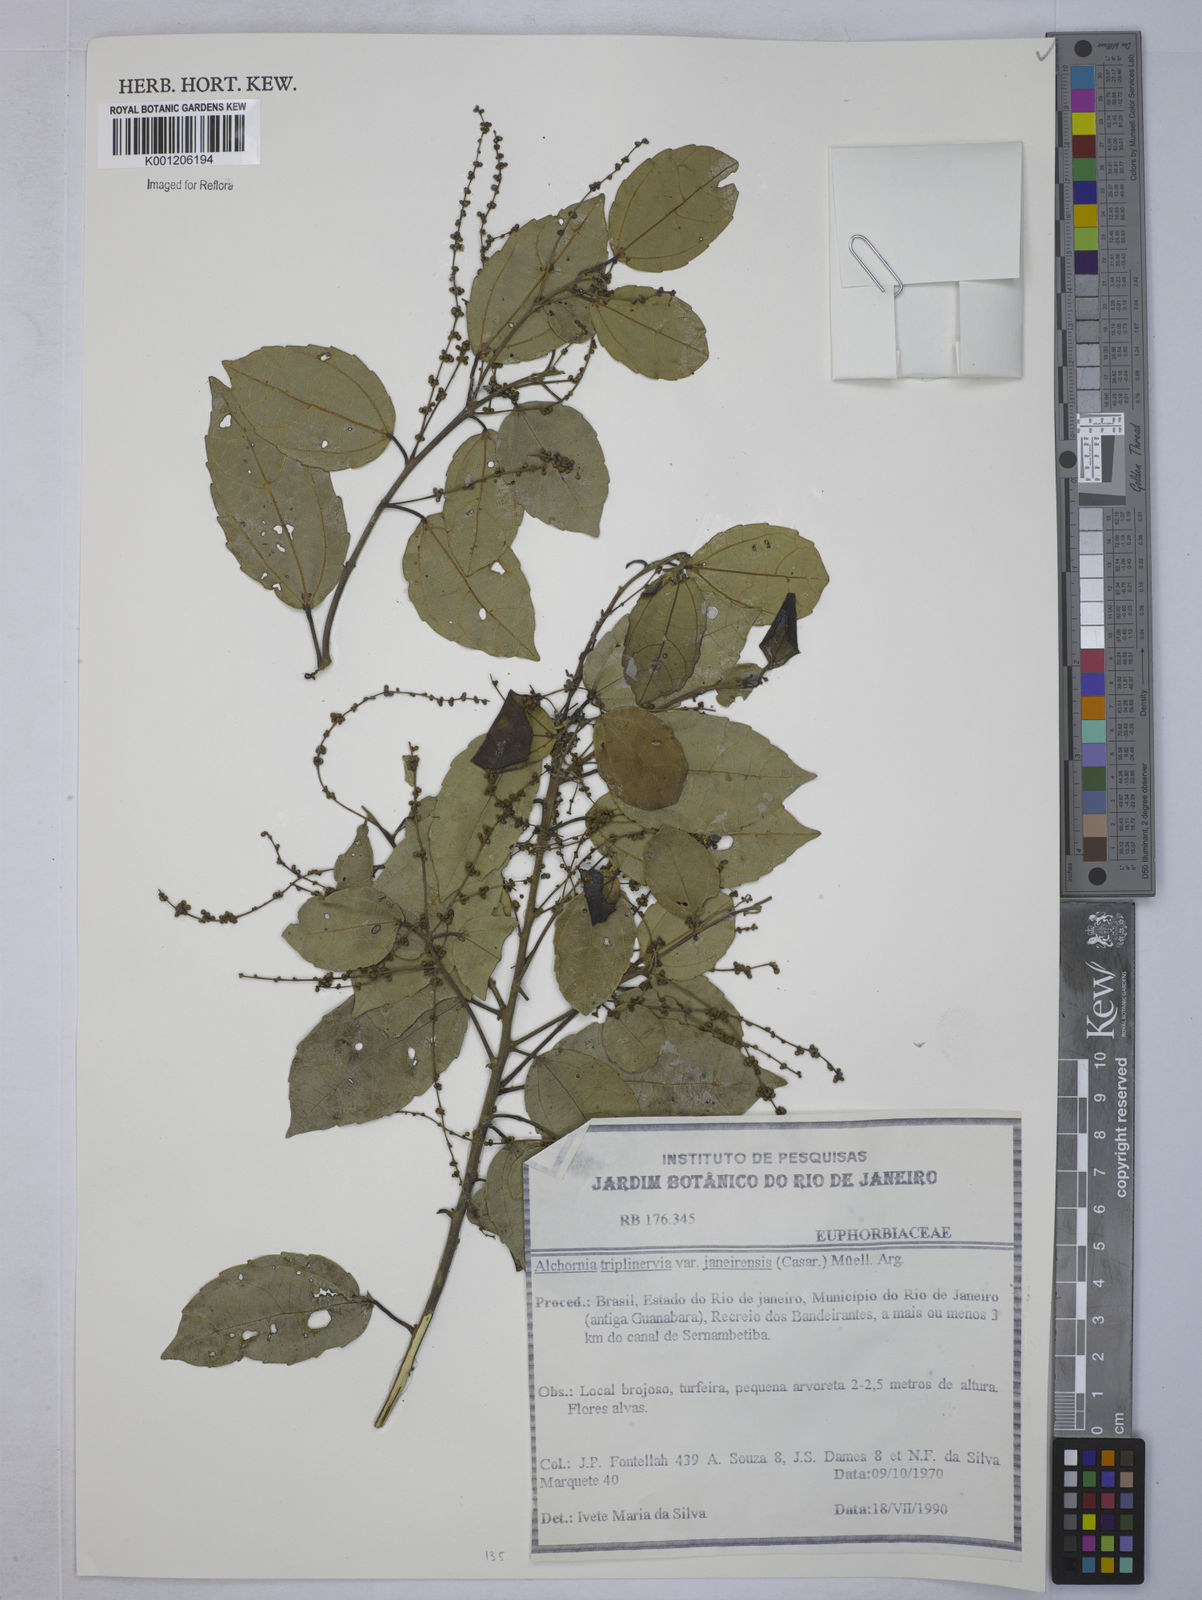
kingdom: Plantae
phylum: Tracheophyta
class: Magnoliopsida
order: Malpighiales
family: Euphorbiaceae
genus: Alchornea
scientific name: Alchornea
